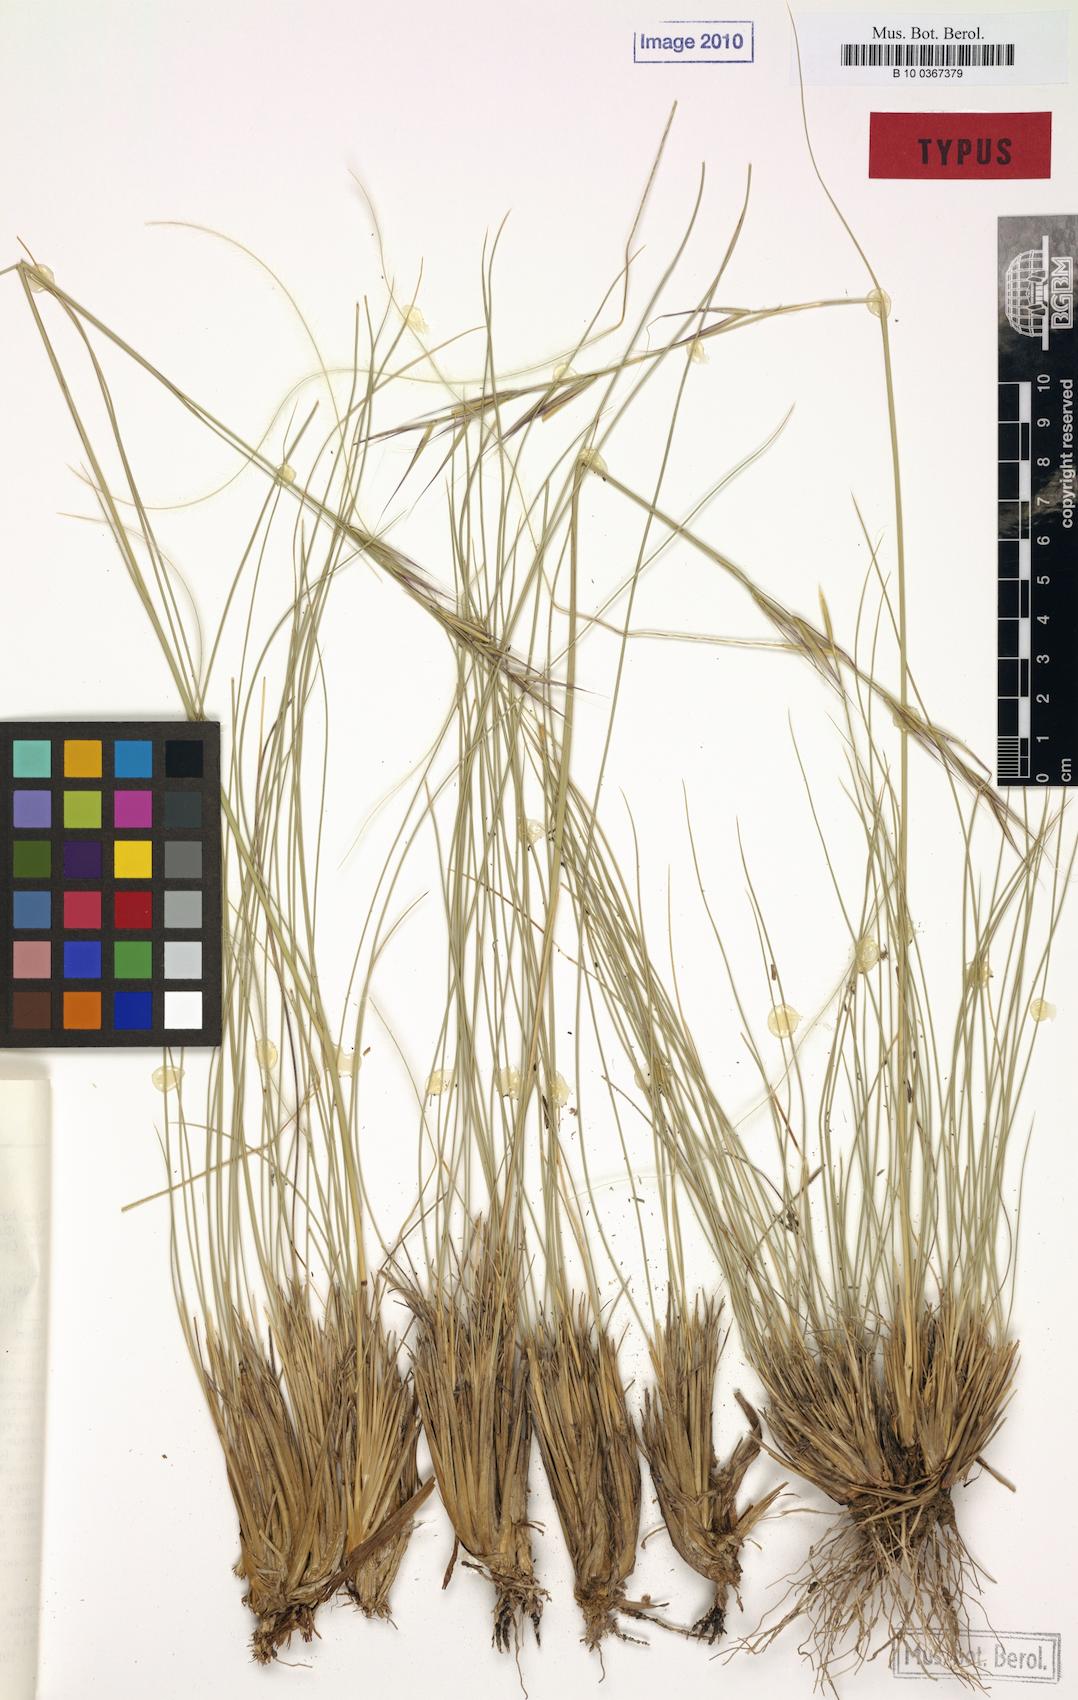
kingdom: Plantae
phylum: Tracheophyta
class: Liliopsida
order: Poales
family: Poaceae
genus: Stipa
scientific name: Stipa kirghisorum
